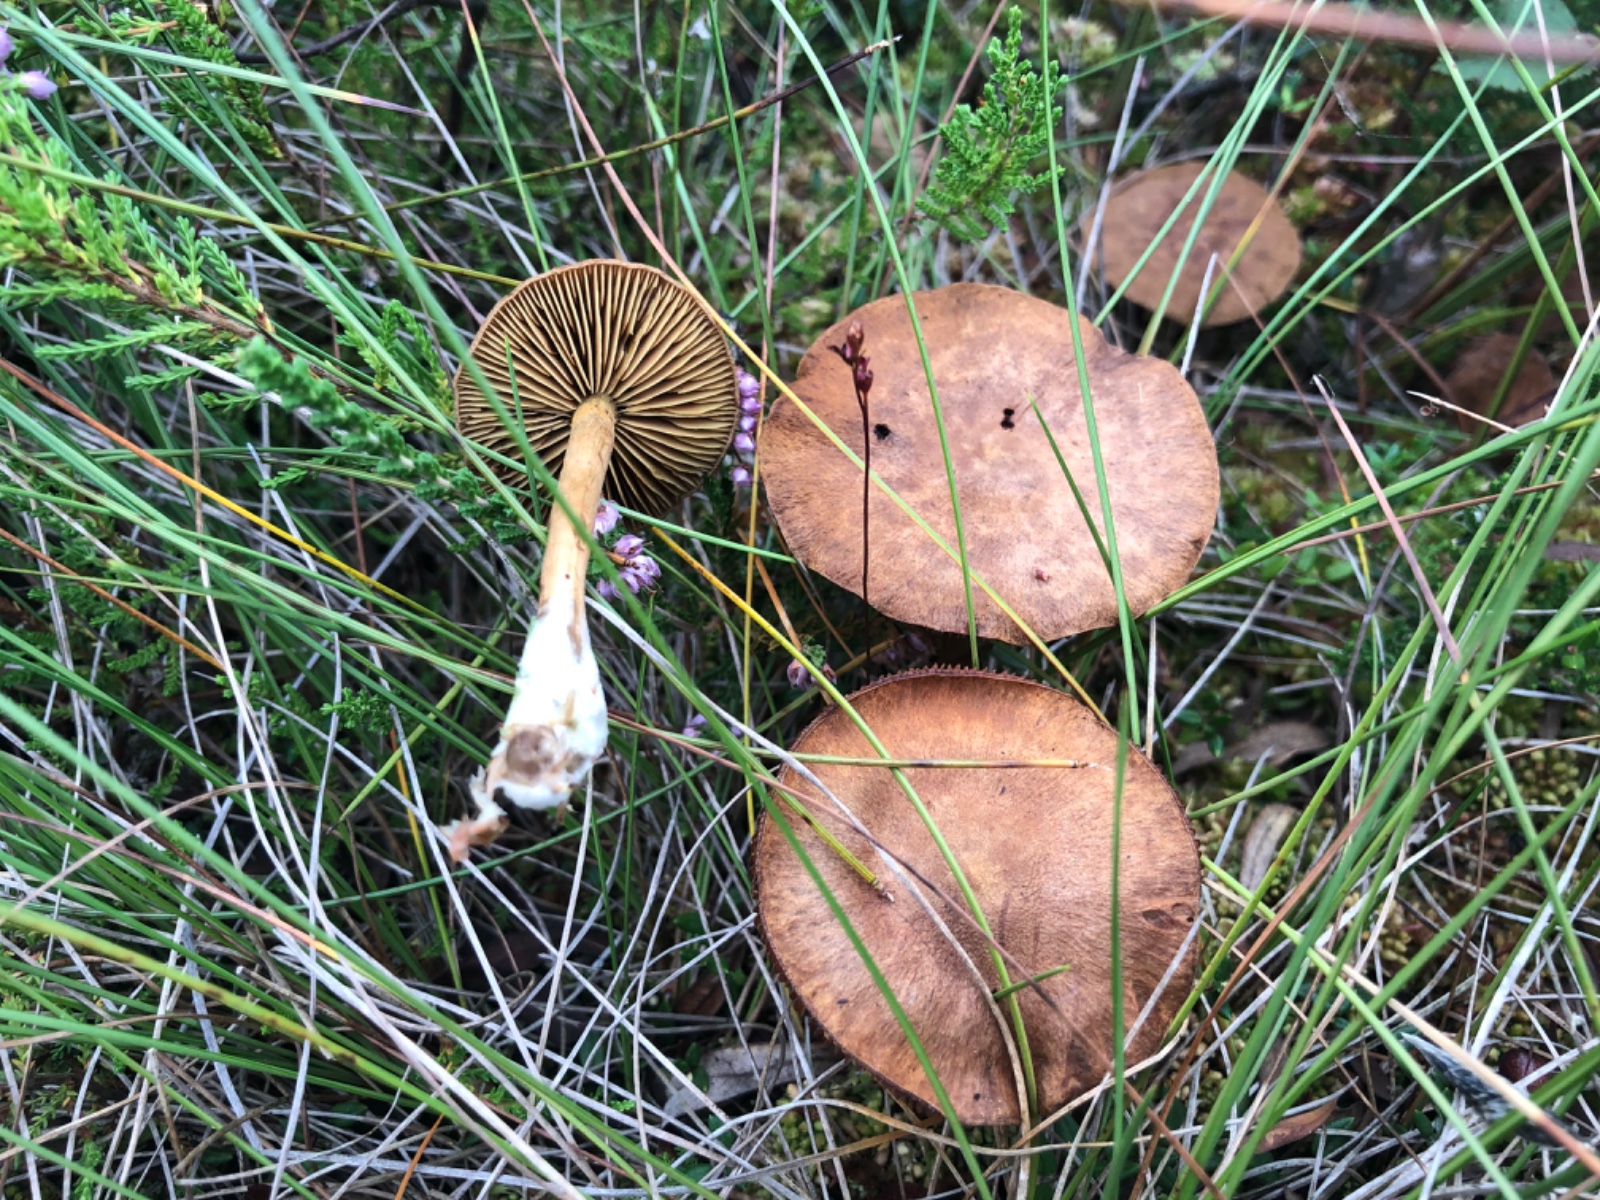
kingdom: Fungi
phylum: Basidiomycota
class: Agaricomycetes
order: Agaricales
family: Cortinariaceae
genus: Cortinarius
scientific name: Cortinarius davemallochii
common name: Mallochs slørhat
